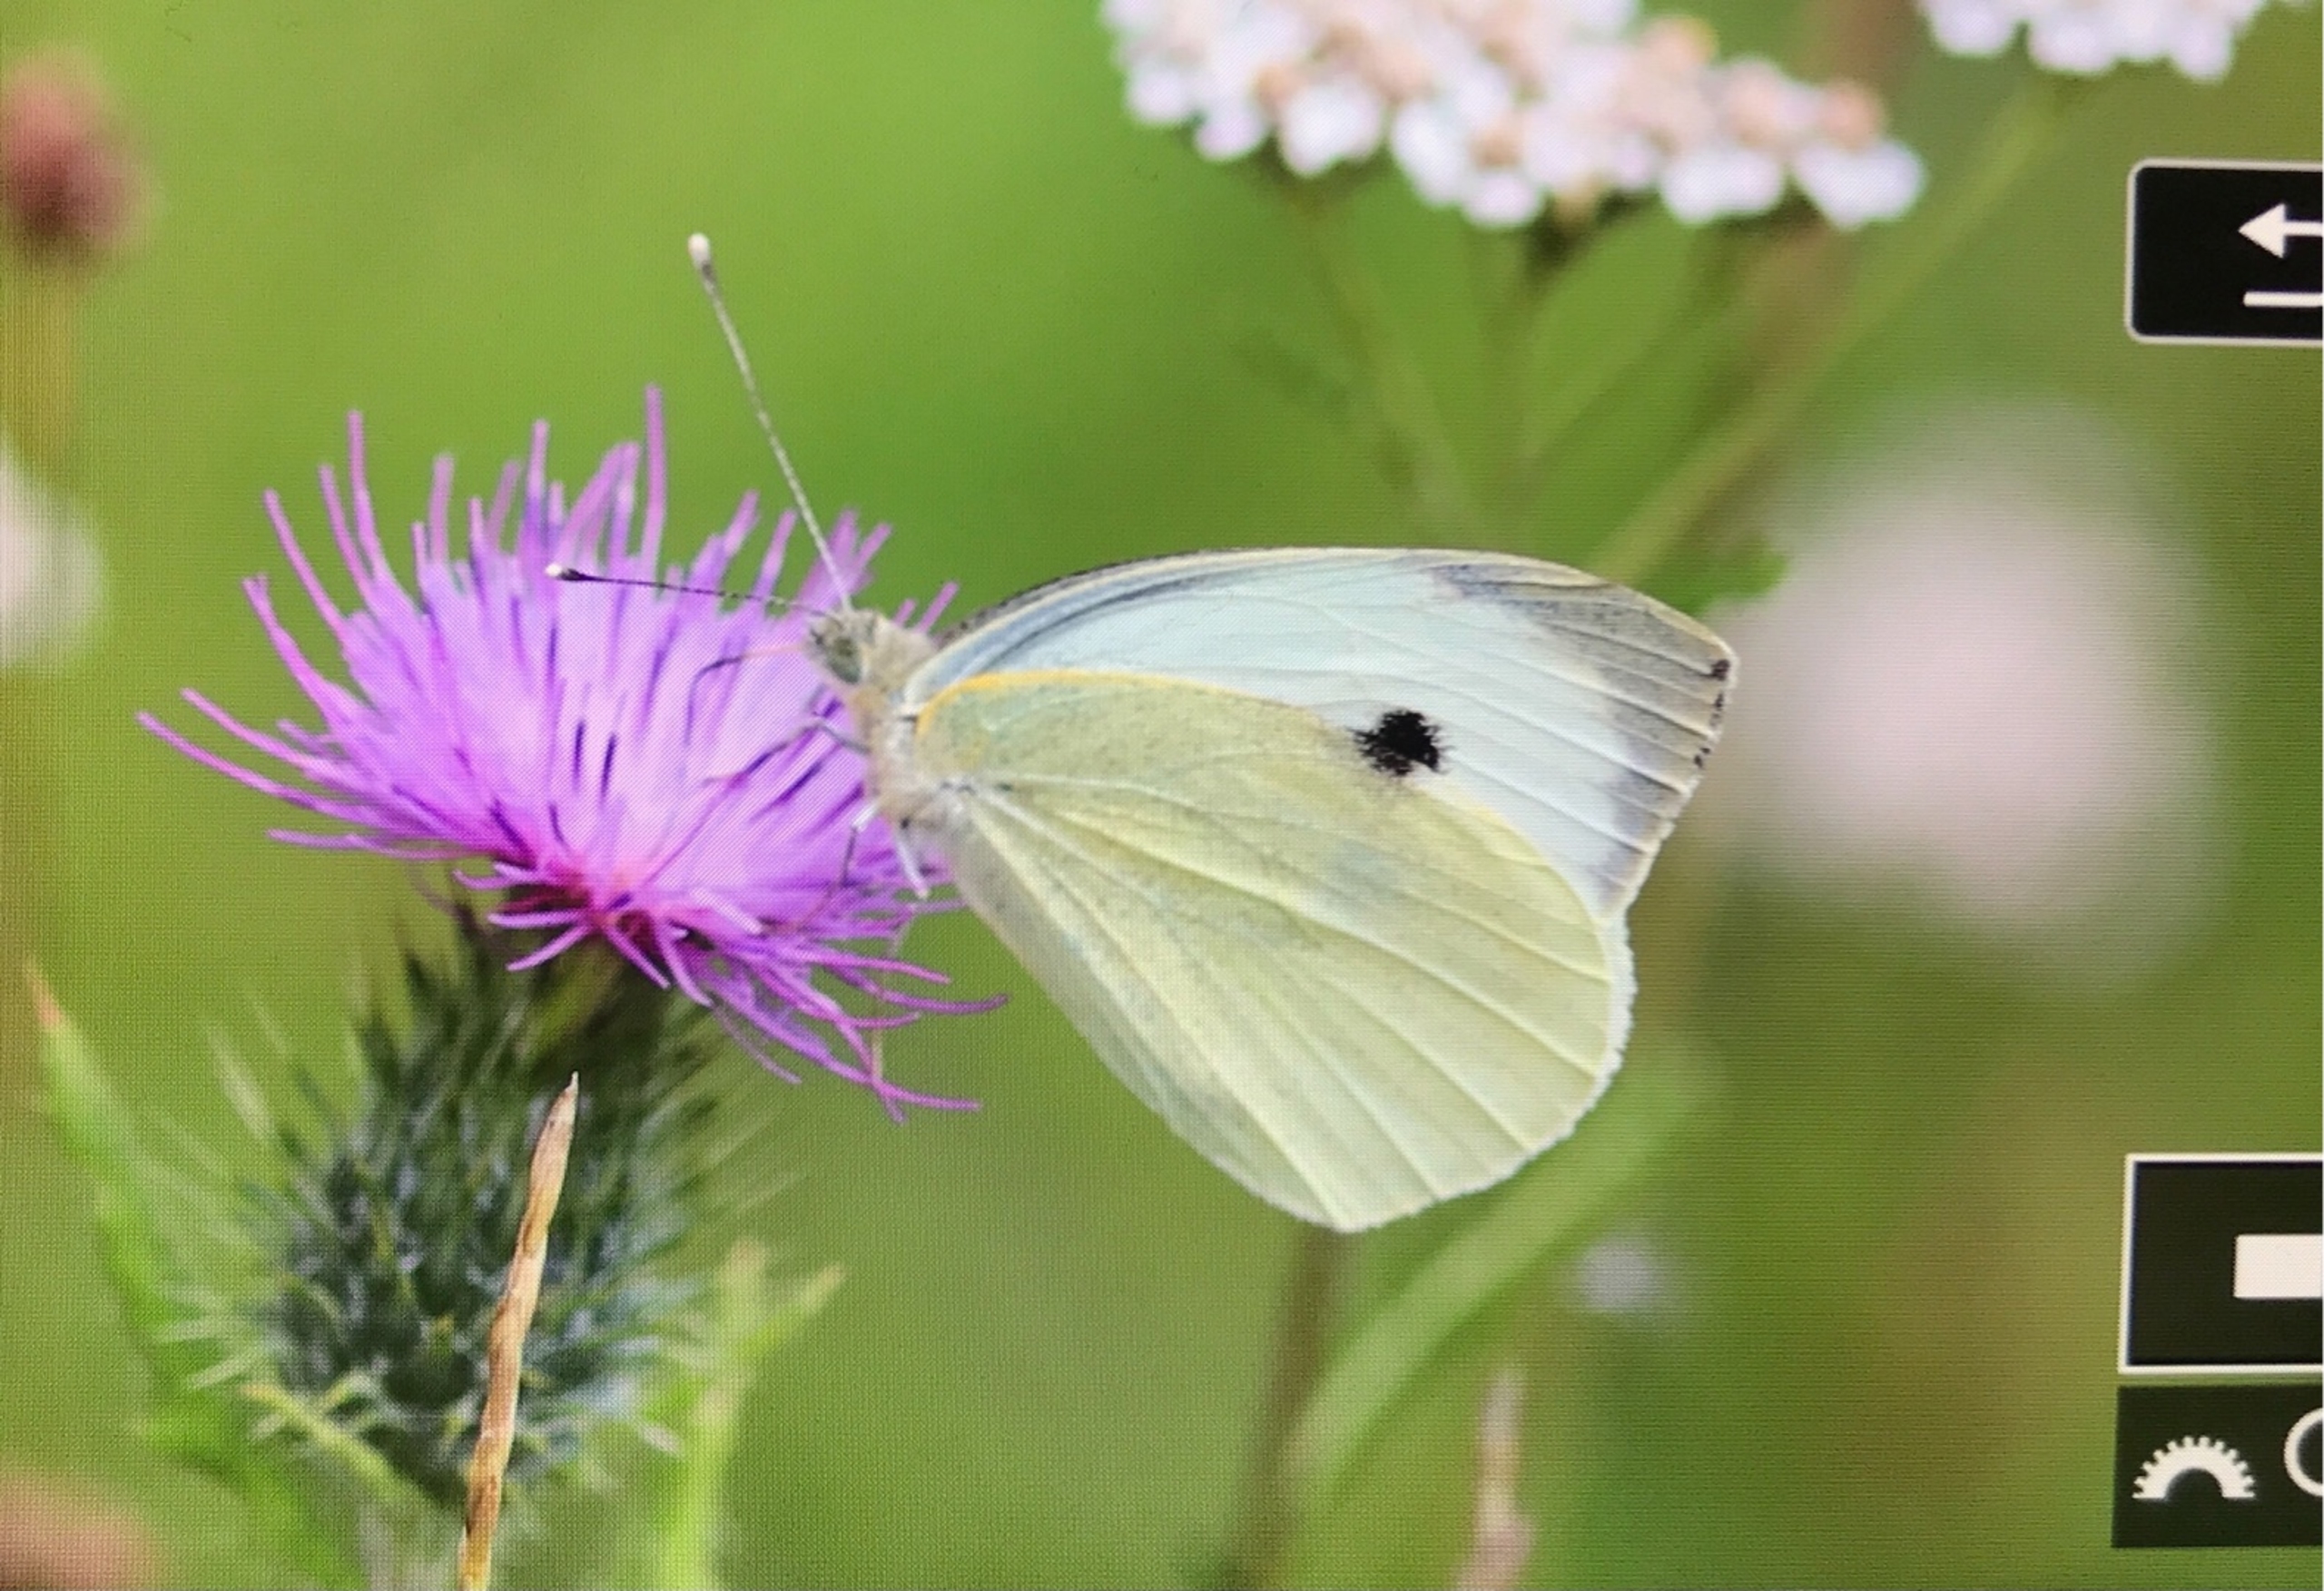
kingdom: Animalia
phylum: Arthropoda
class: Insecta
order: Lepidoptera
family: Pieridae
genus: Pieris
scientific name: Pieris brassicae
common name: Stor kålsommerfugl
